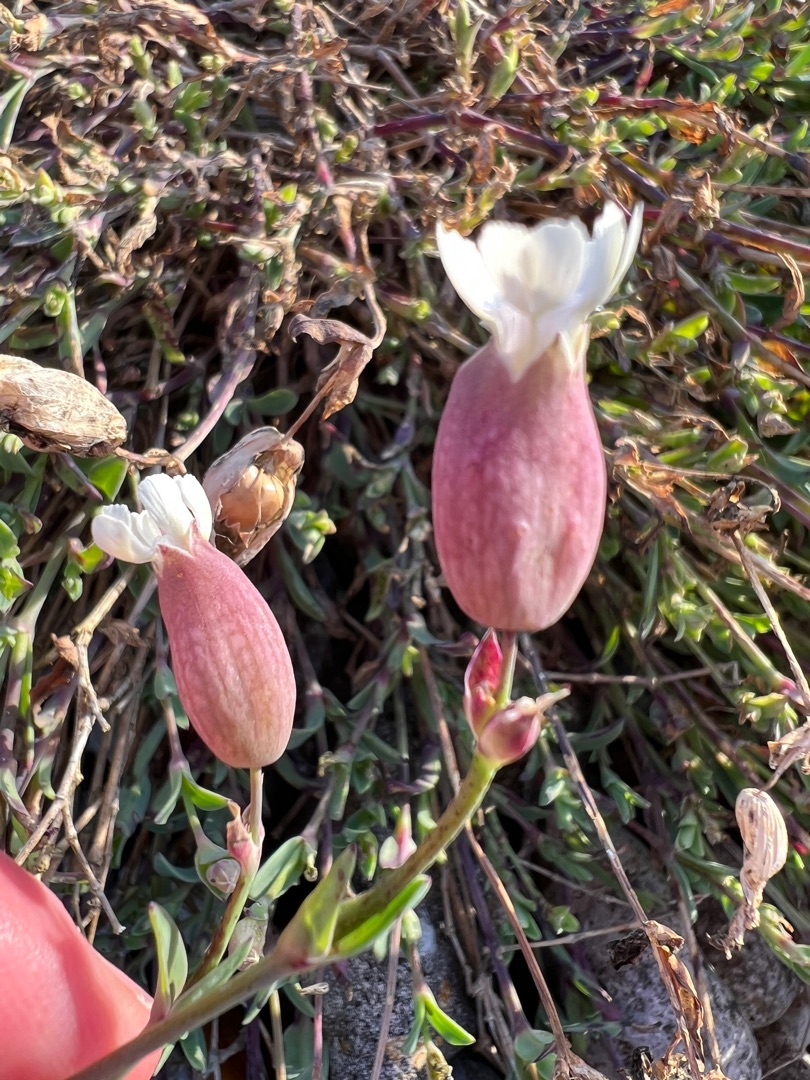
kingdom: Plantae
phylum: Tracheophyta
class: Magnoliopsida
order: Caryophyllales
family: Caryophyllaceae
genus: Silene
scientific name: Silene uniflora
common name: Strand-limurt
